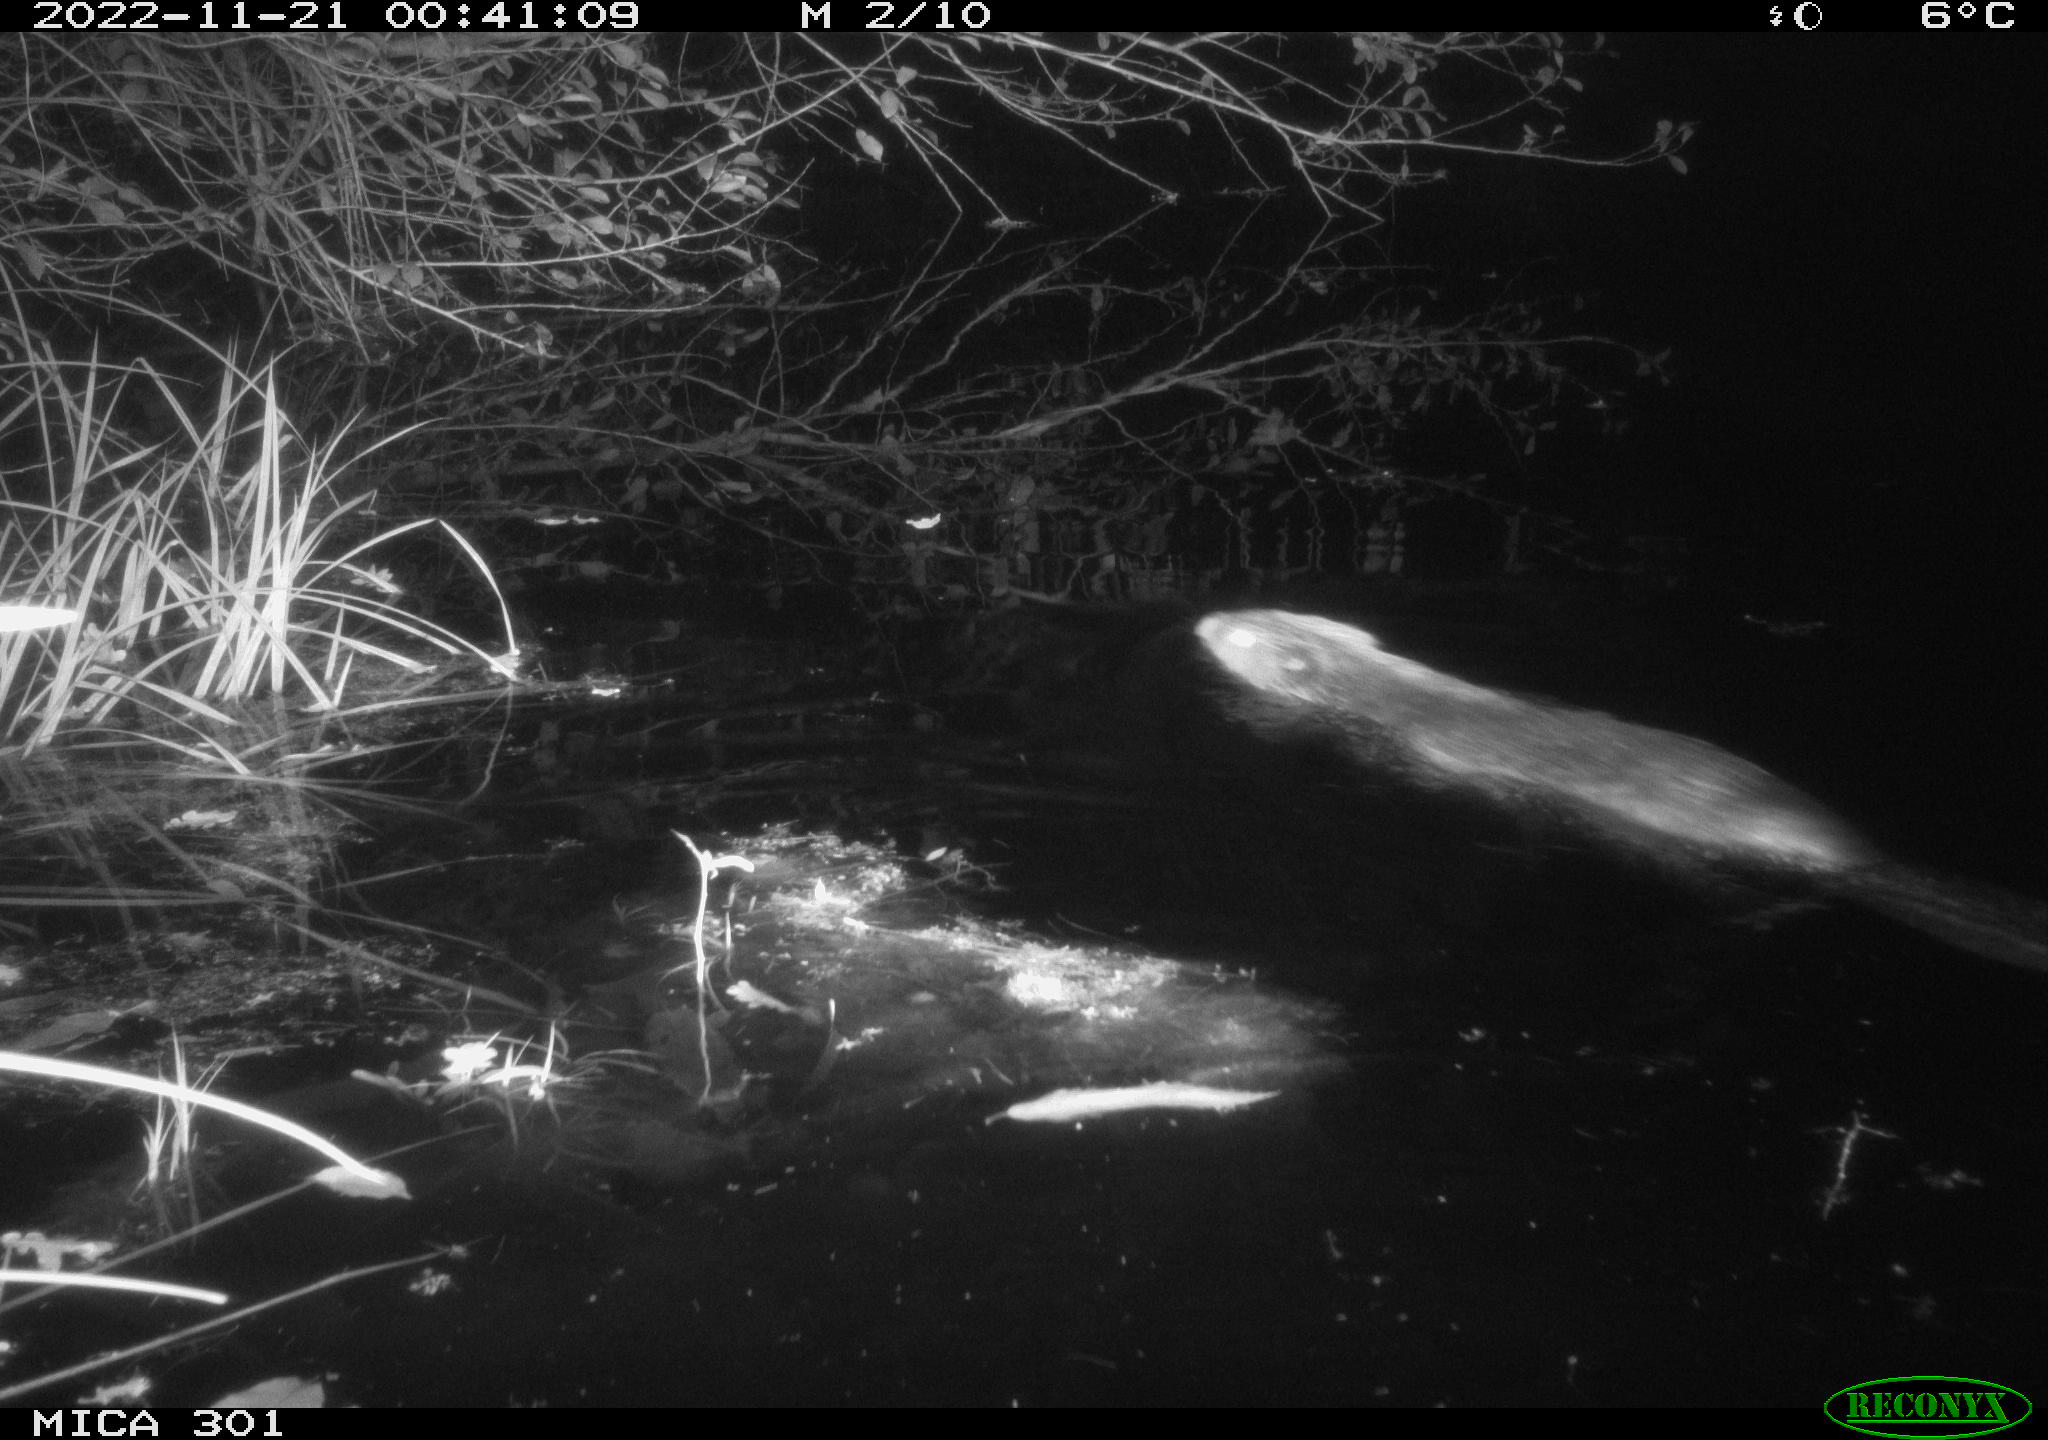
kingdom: Animalia
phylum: Chordata
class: Mammalia
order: Rodentia
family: Castoridae
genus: Castor
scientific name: Castor fiber
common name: Eurasian beaver
